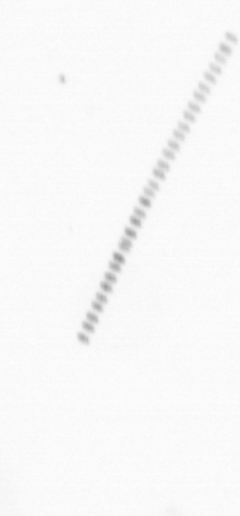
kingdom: Chromista
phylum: Ochrophyta
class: Bacillariophyceae
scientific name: Bacillariophyceae
